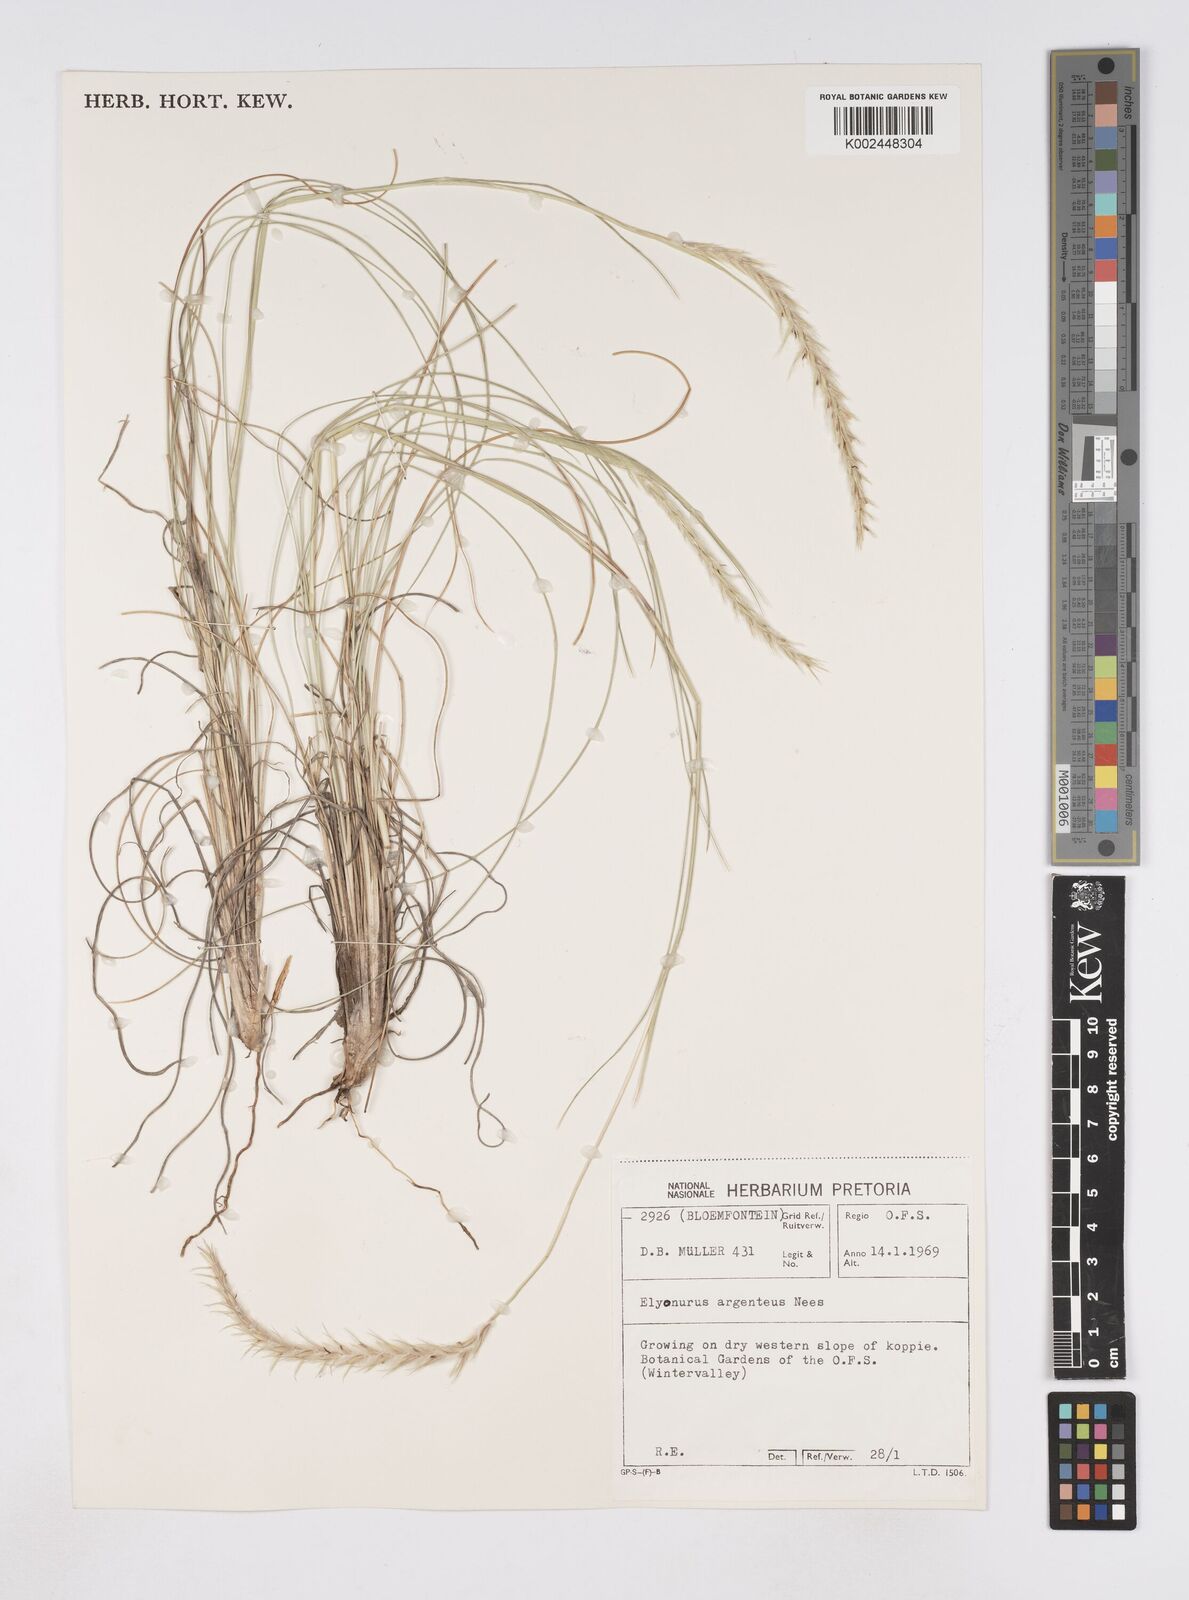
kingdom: Plantae
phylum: Tracheophyta
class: Liliopsida
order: Poales
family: Poaceae
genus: Elionurus
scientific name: Elionurus muticus
